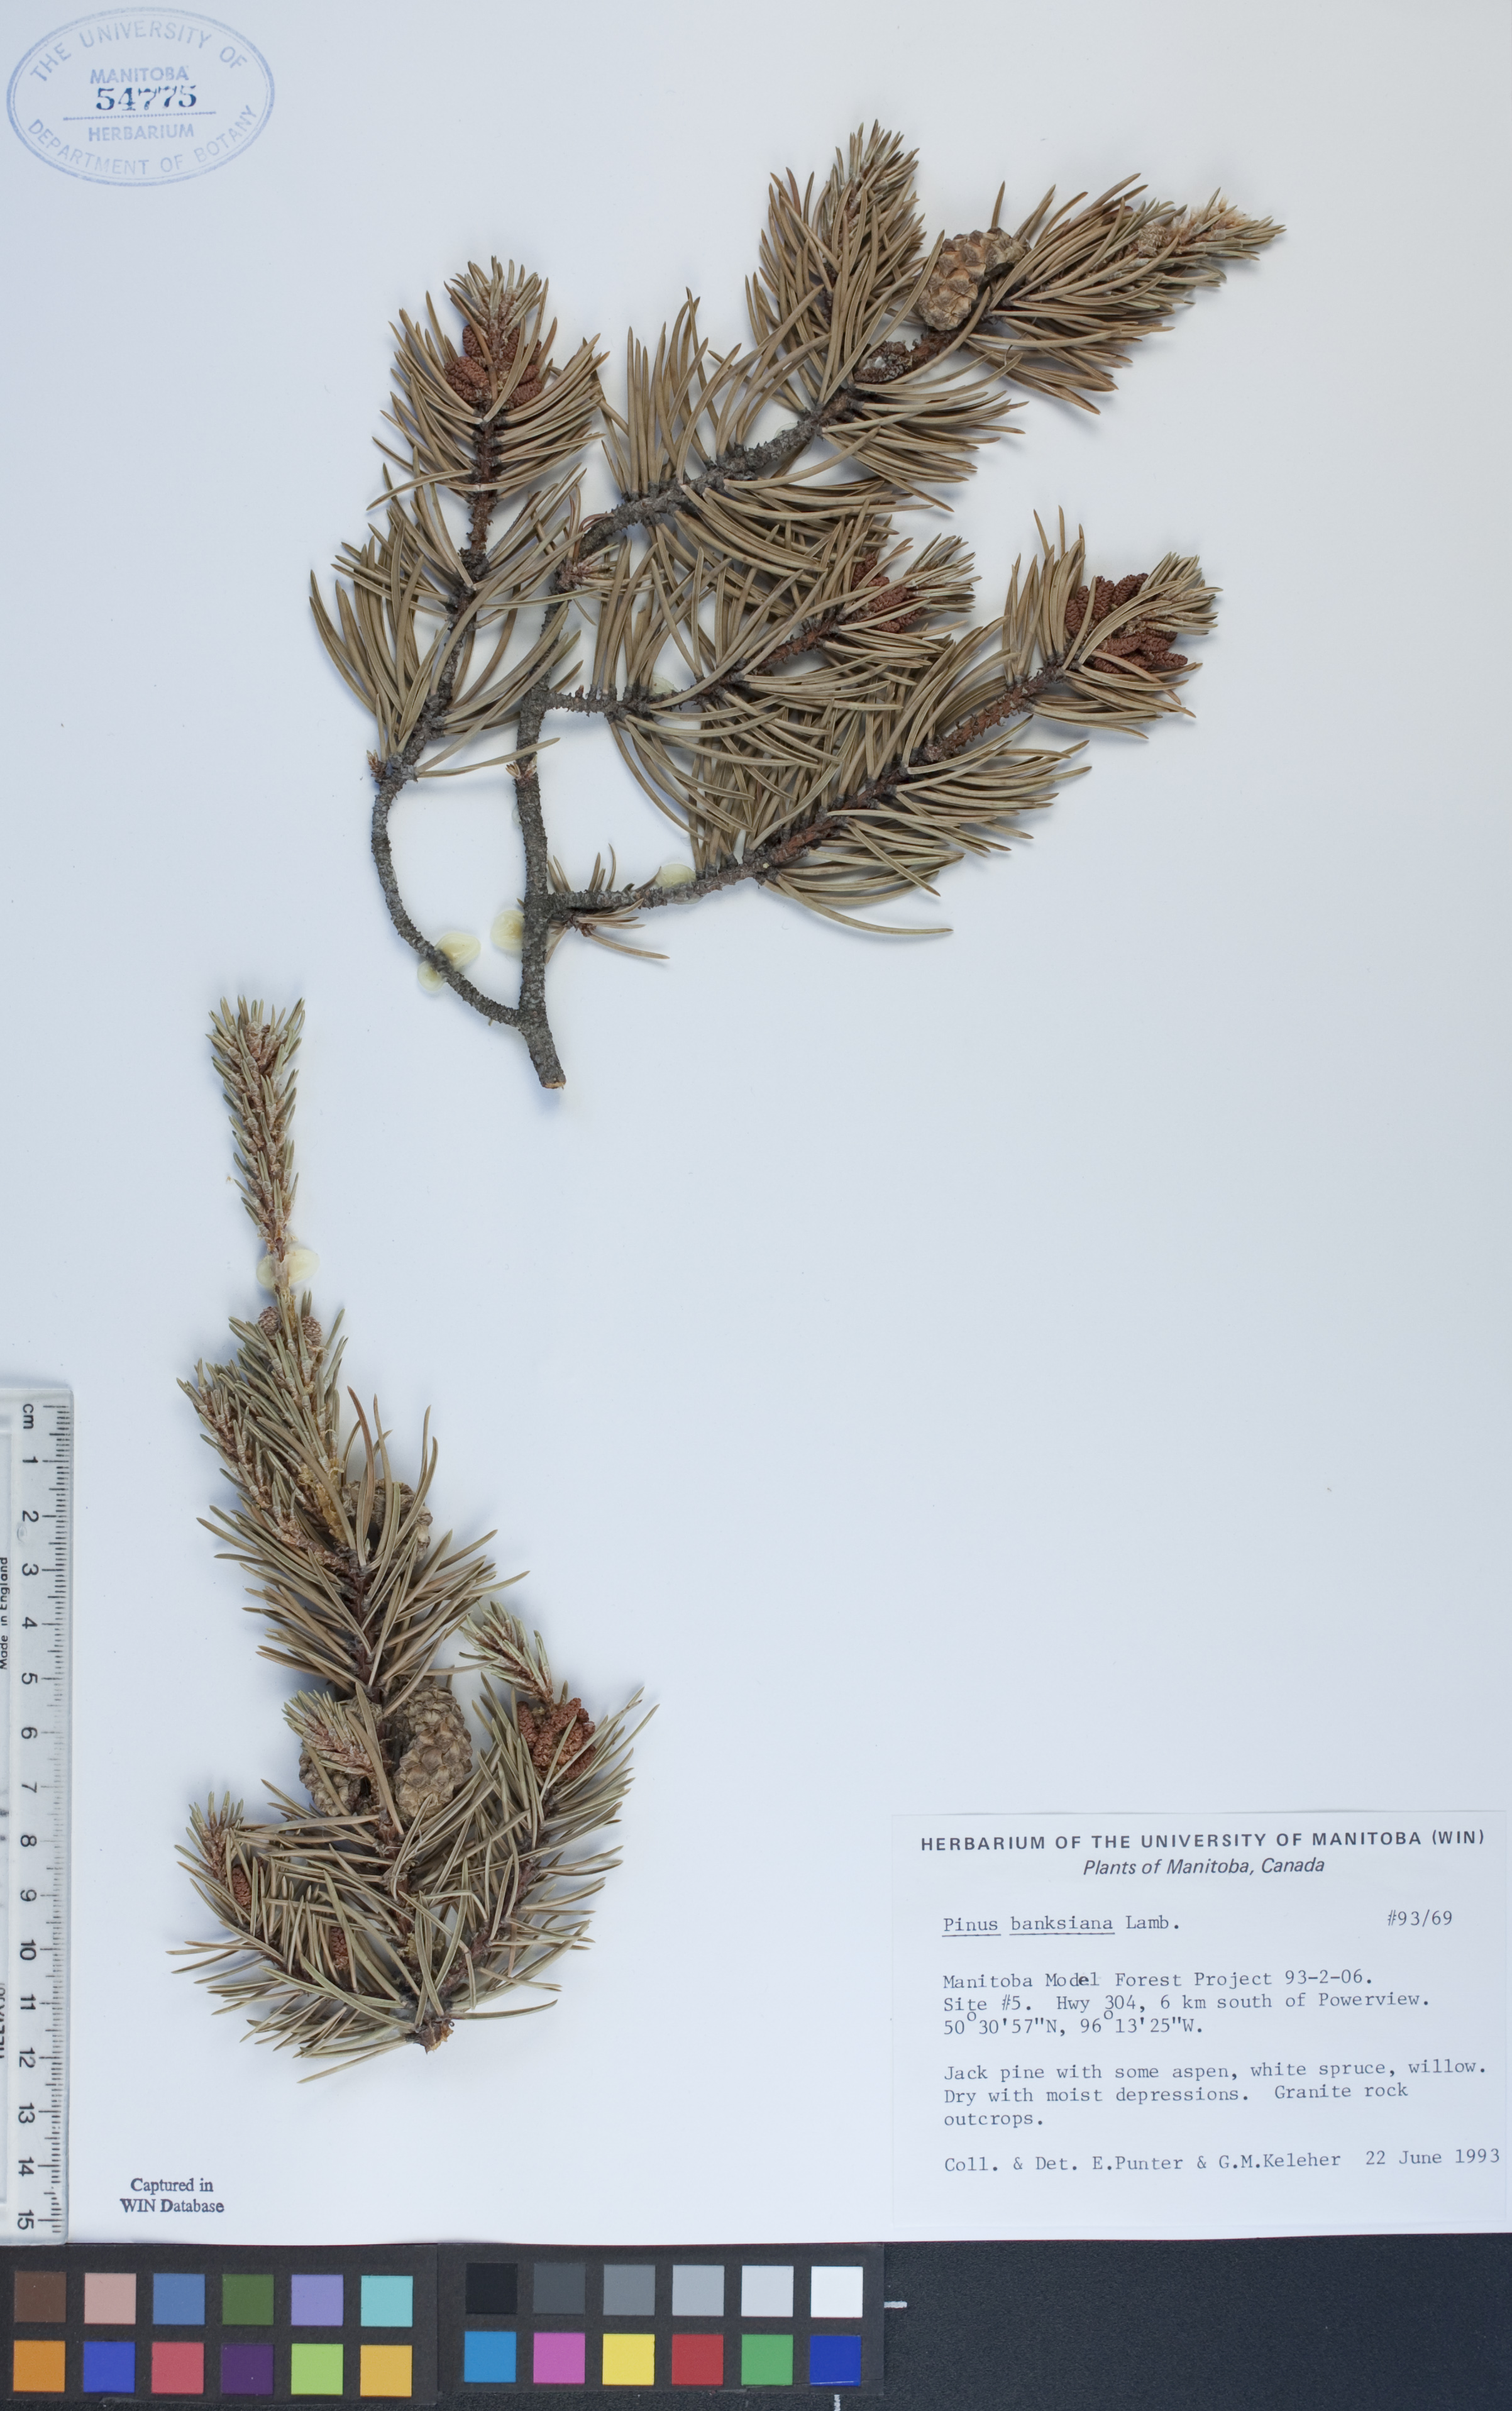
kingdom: Plantae
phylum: Tracheophyta
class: Pinopsida
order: Pinales
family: Pinaceae
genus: Pinus
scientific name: Pinus banksiana
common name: Jack pine
